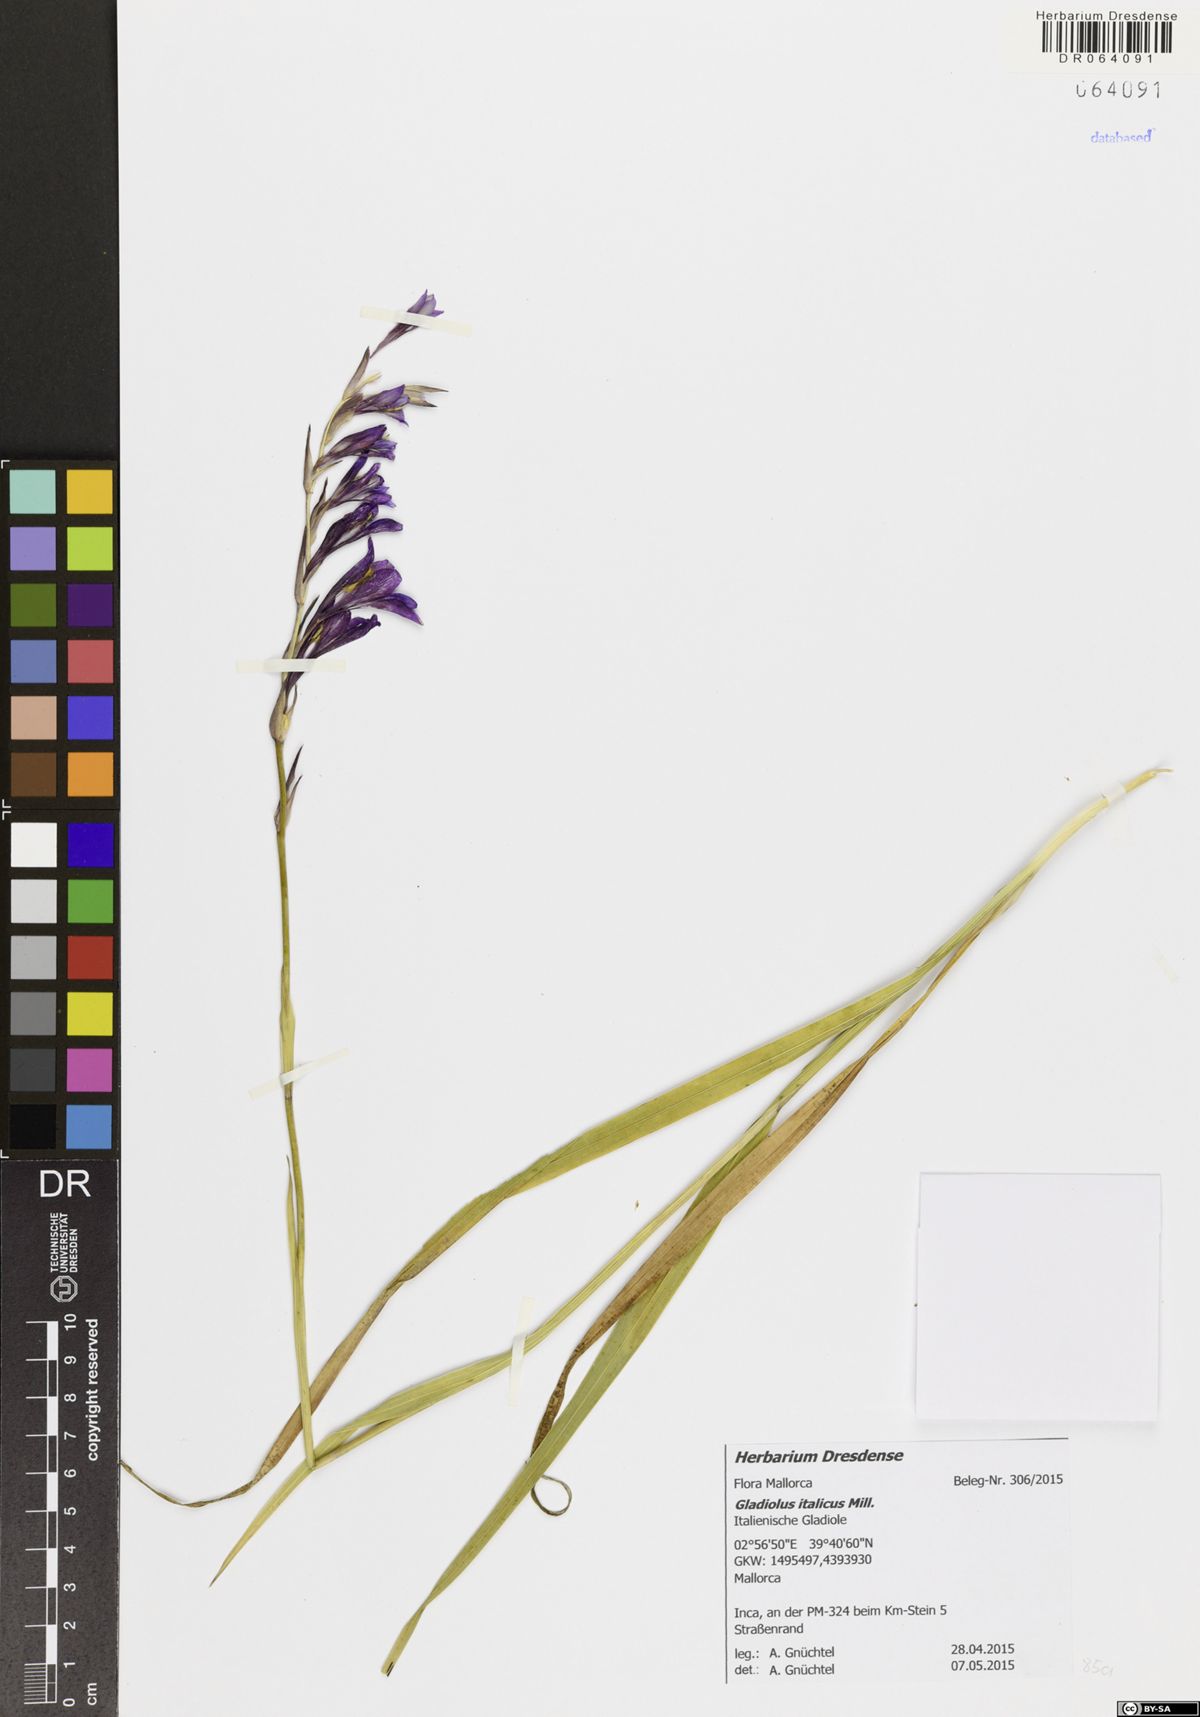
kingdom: Plantae
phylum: Tracheophyta
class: Liliopsida
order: Asparagales
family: Iridaceae
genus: Gladiolus
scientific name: Gladiolus italicus
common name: Field gladiolus
